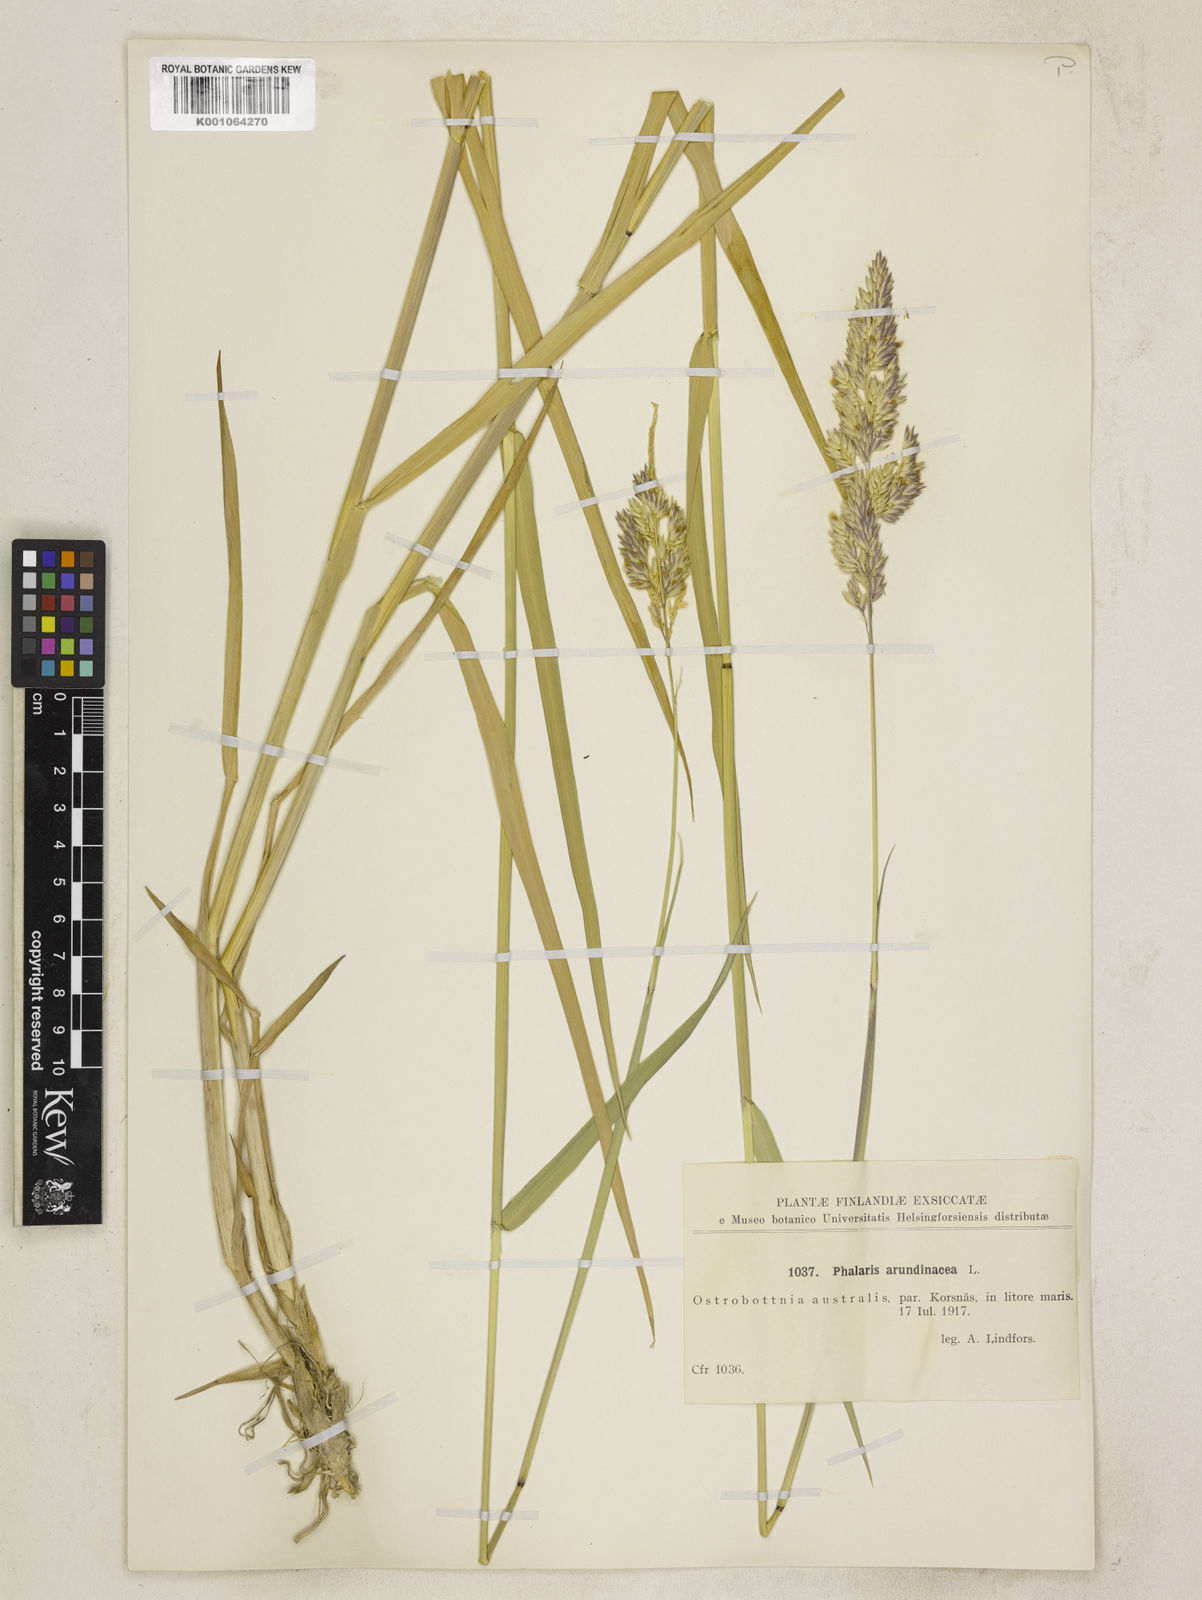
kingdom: Plantae
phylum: Tracheophyta
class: Liliopsida
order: Poales
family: Poaceae
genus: Phalaris
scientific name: Phalaris arundinacea
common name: Reed canary-grass
